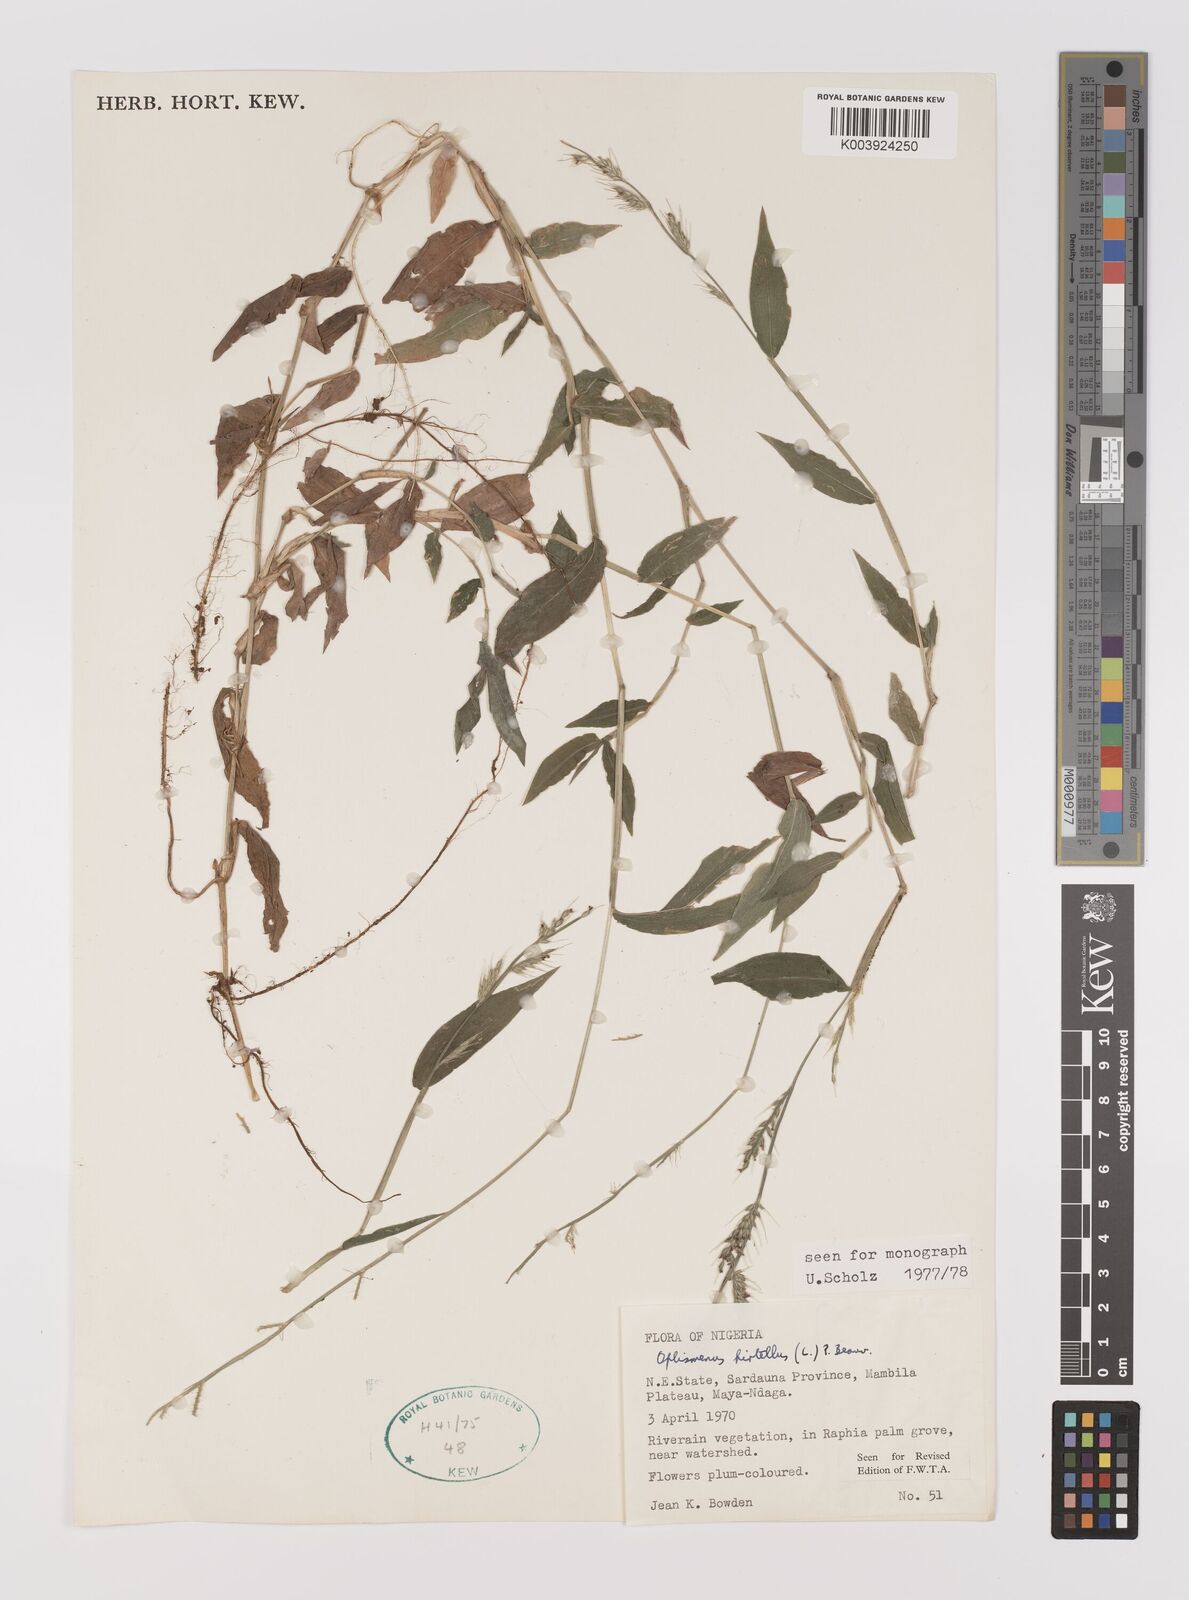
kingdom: Plantae
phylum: Tracheophyta
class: Liliopsida
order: Poales
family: Poaceae
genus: Oplismenus
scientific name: Oplismenus hirtellus
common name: Basketgrass
